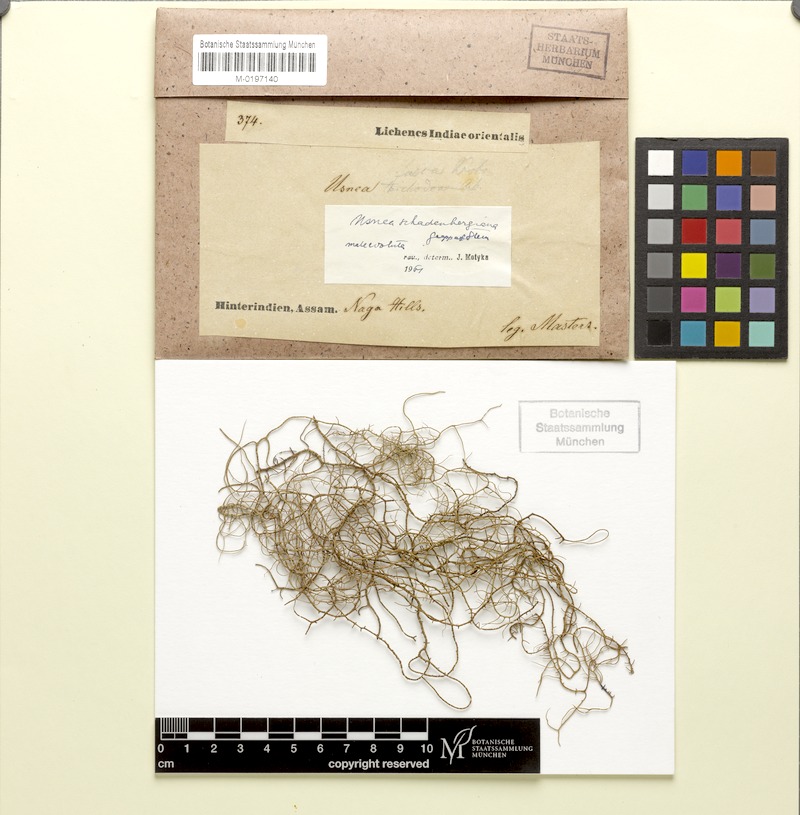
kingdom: Fungi
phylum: Ascomycota
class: Lecanoromycetes
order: Lecanorales
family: Parmeliaceae
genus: Usnea
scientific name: Usnea schadenbergiana
